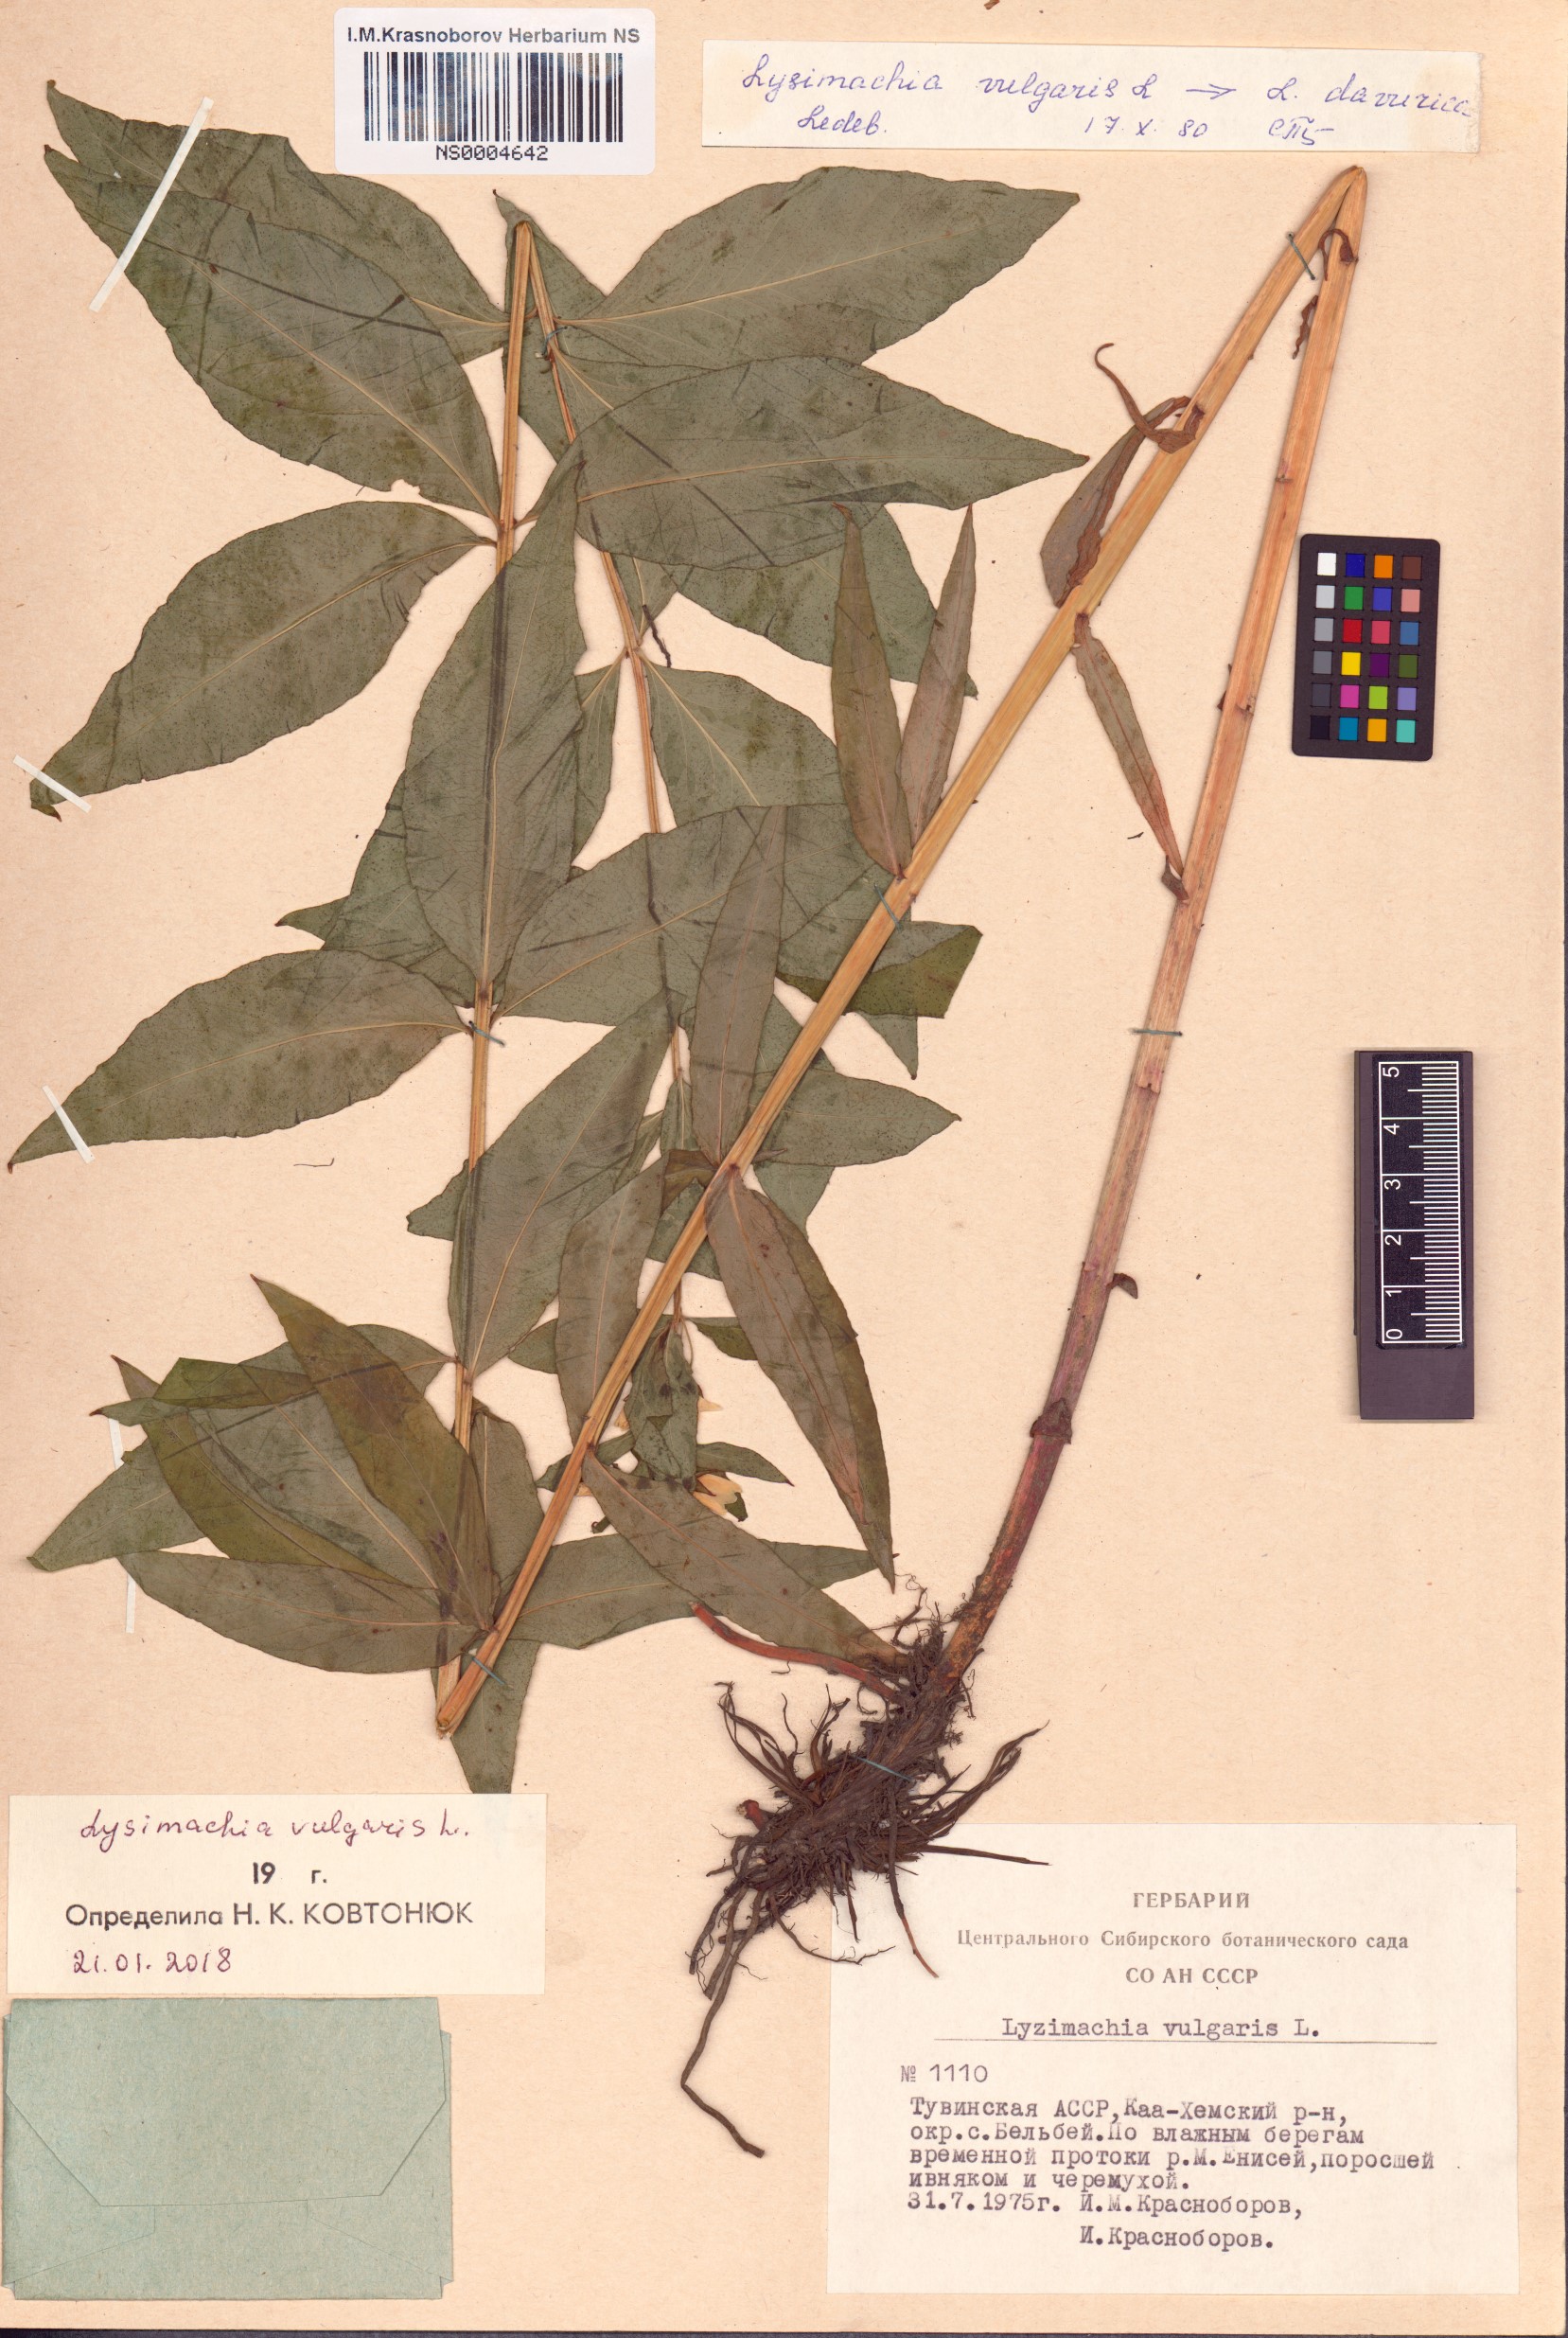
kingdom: Plantae
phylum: Tracheophyta
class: Magnoliopsida
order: Ericales
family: Primulaceae
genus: Lysimachia
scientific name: Lysimachia vulgaris
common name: Yellow loosestrife
